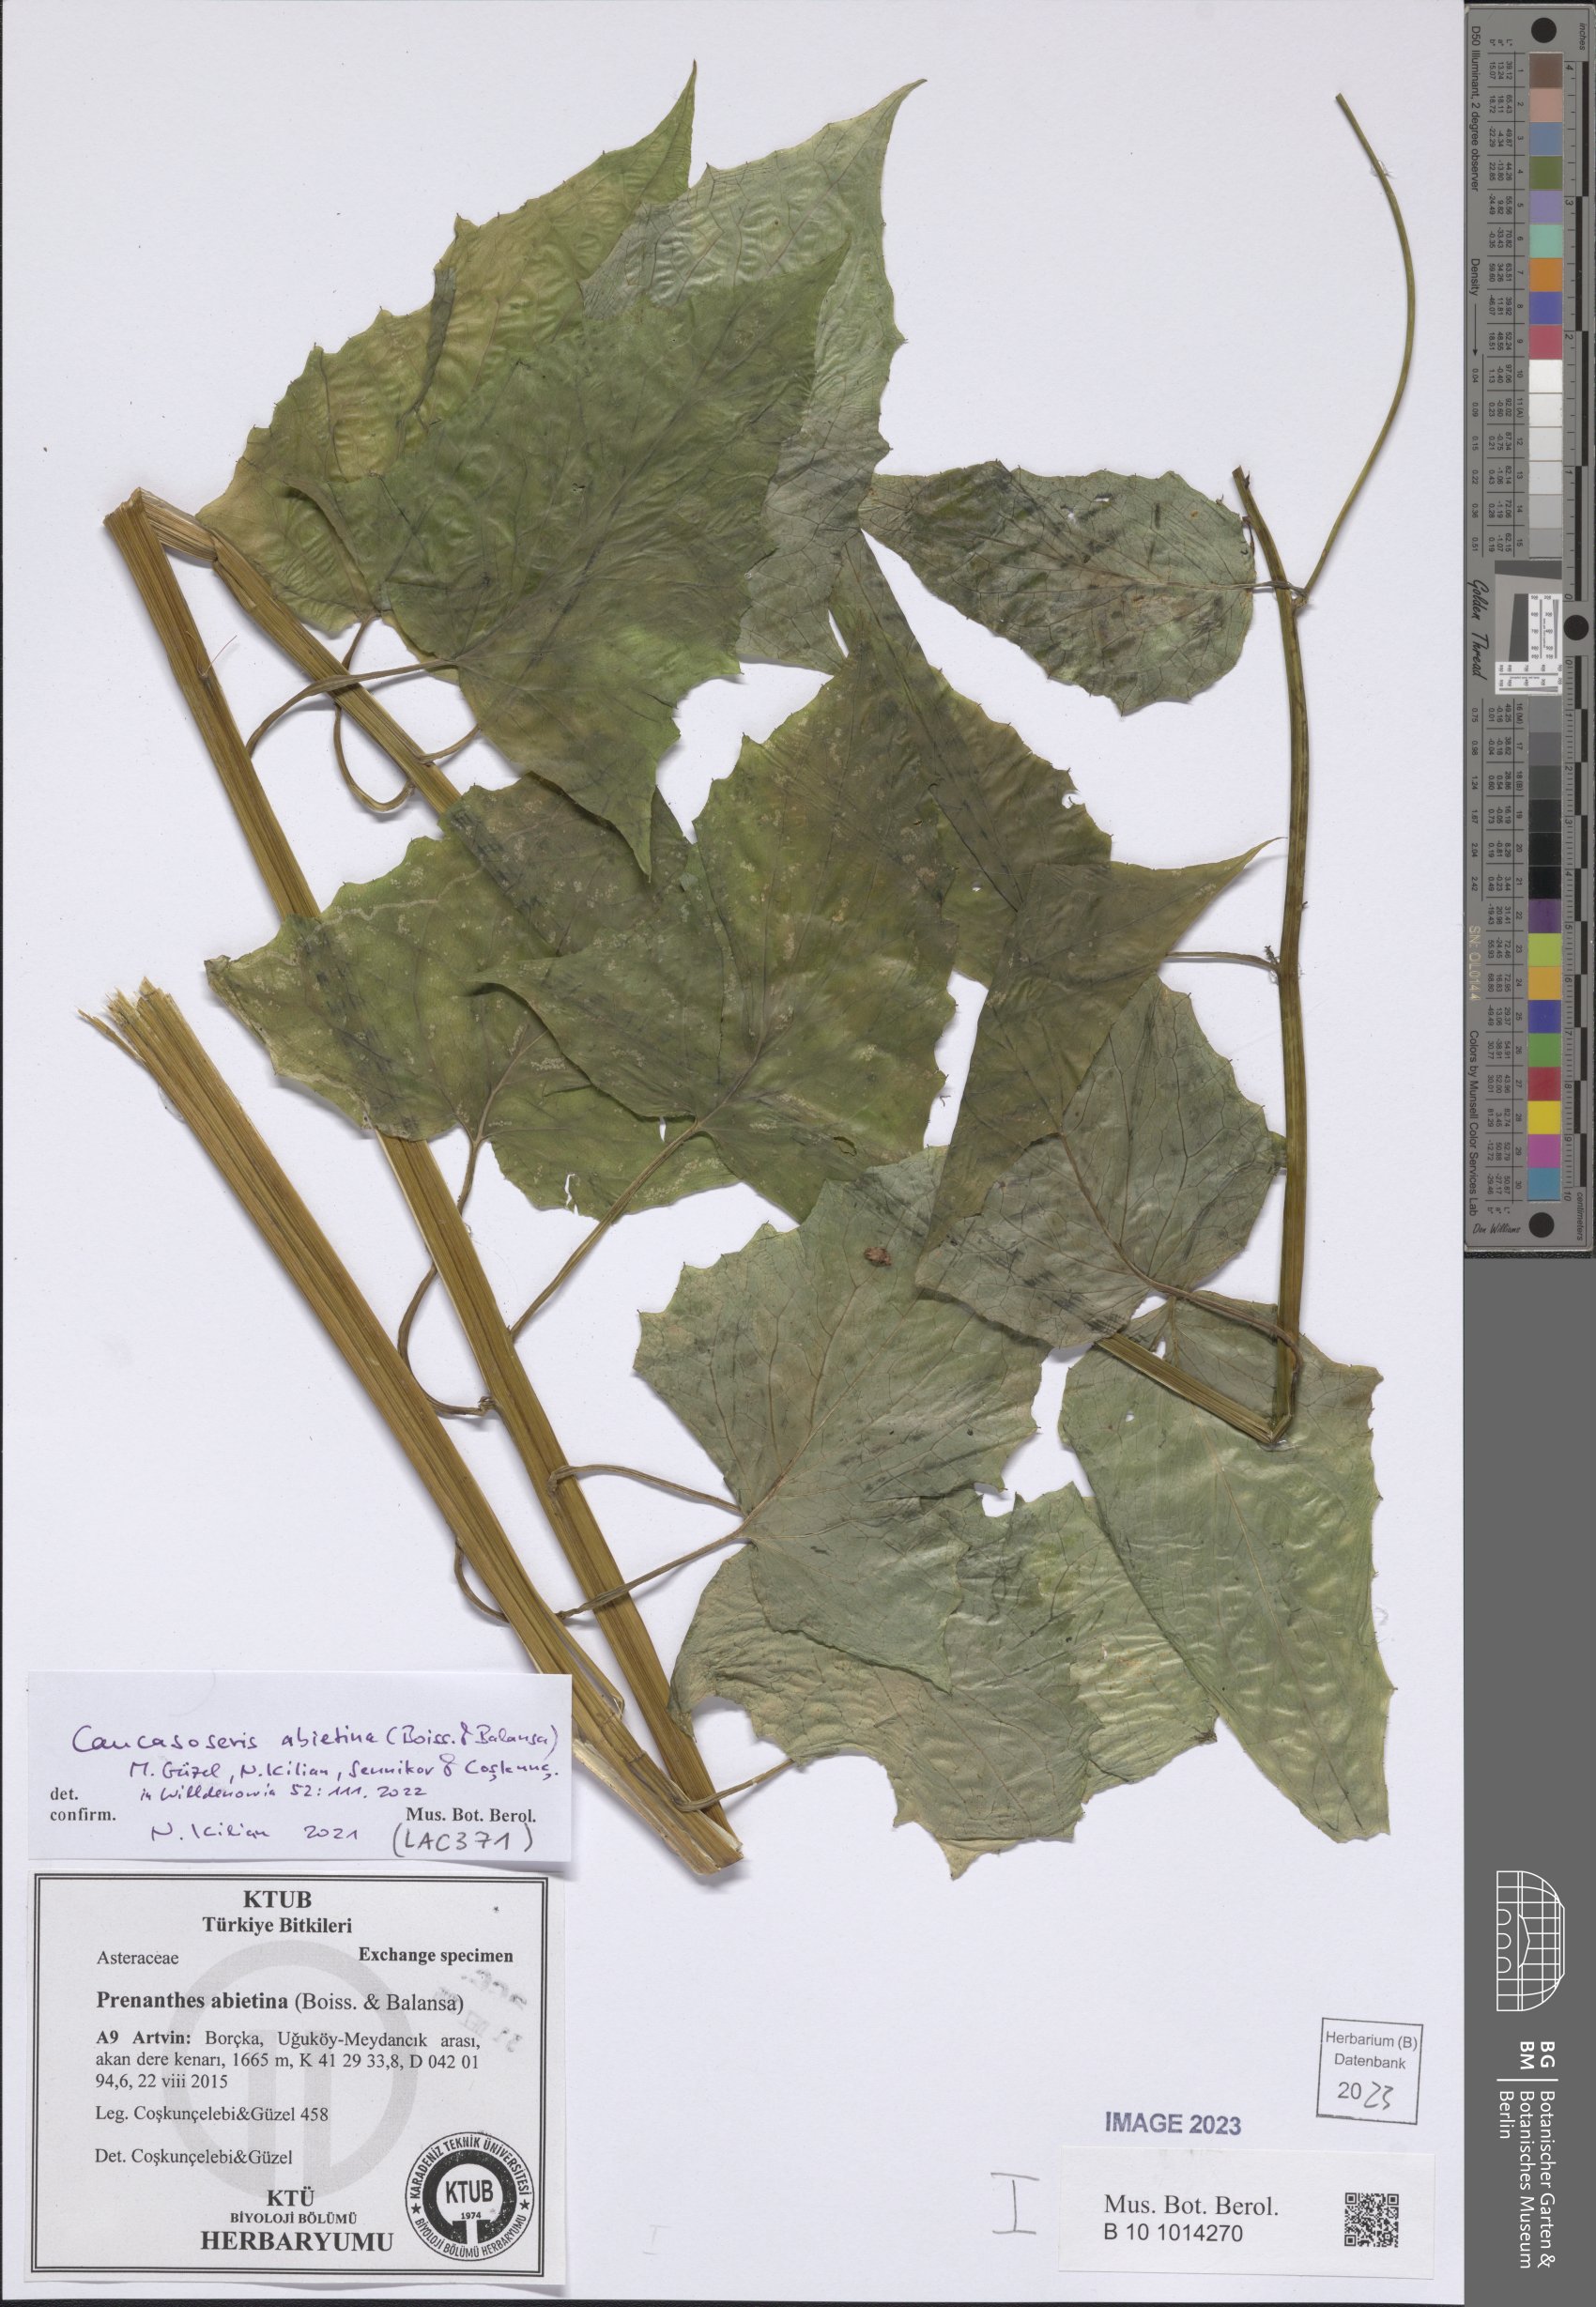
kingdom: Plantae
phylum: Tracheophyta
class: Magnoliopsida
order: Asterales
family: Asteraceae
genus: Caucasoseris
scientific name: Caucasoseris abietina
